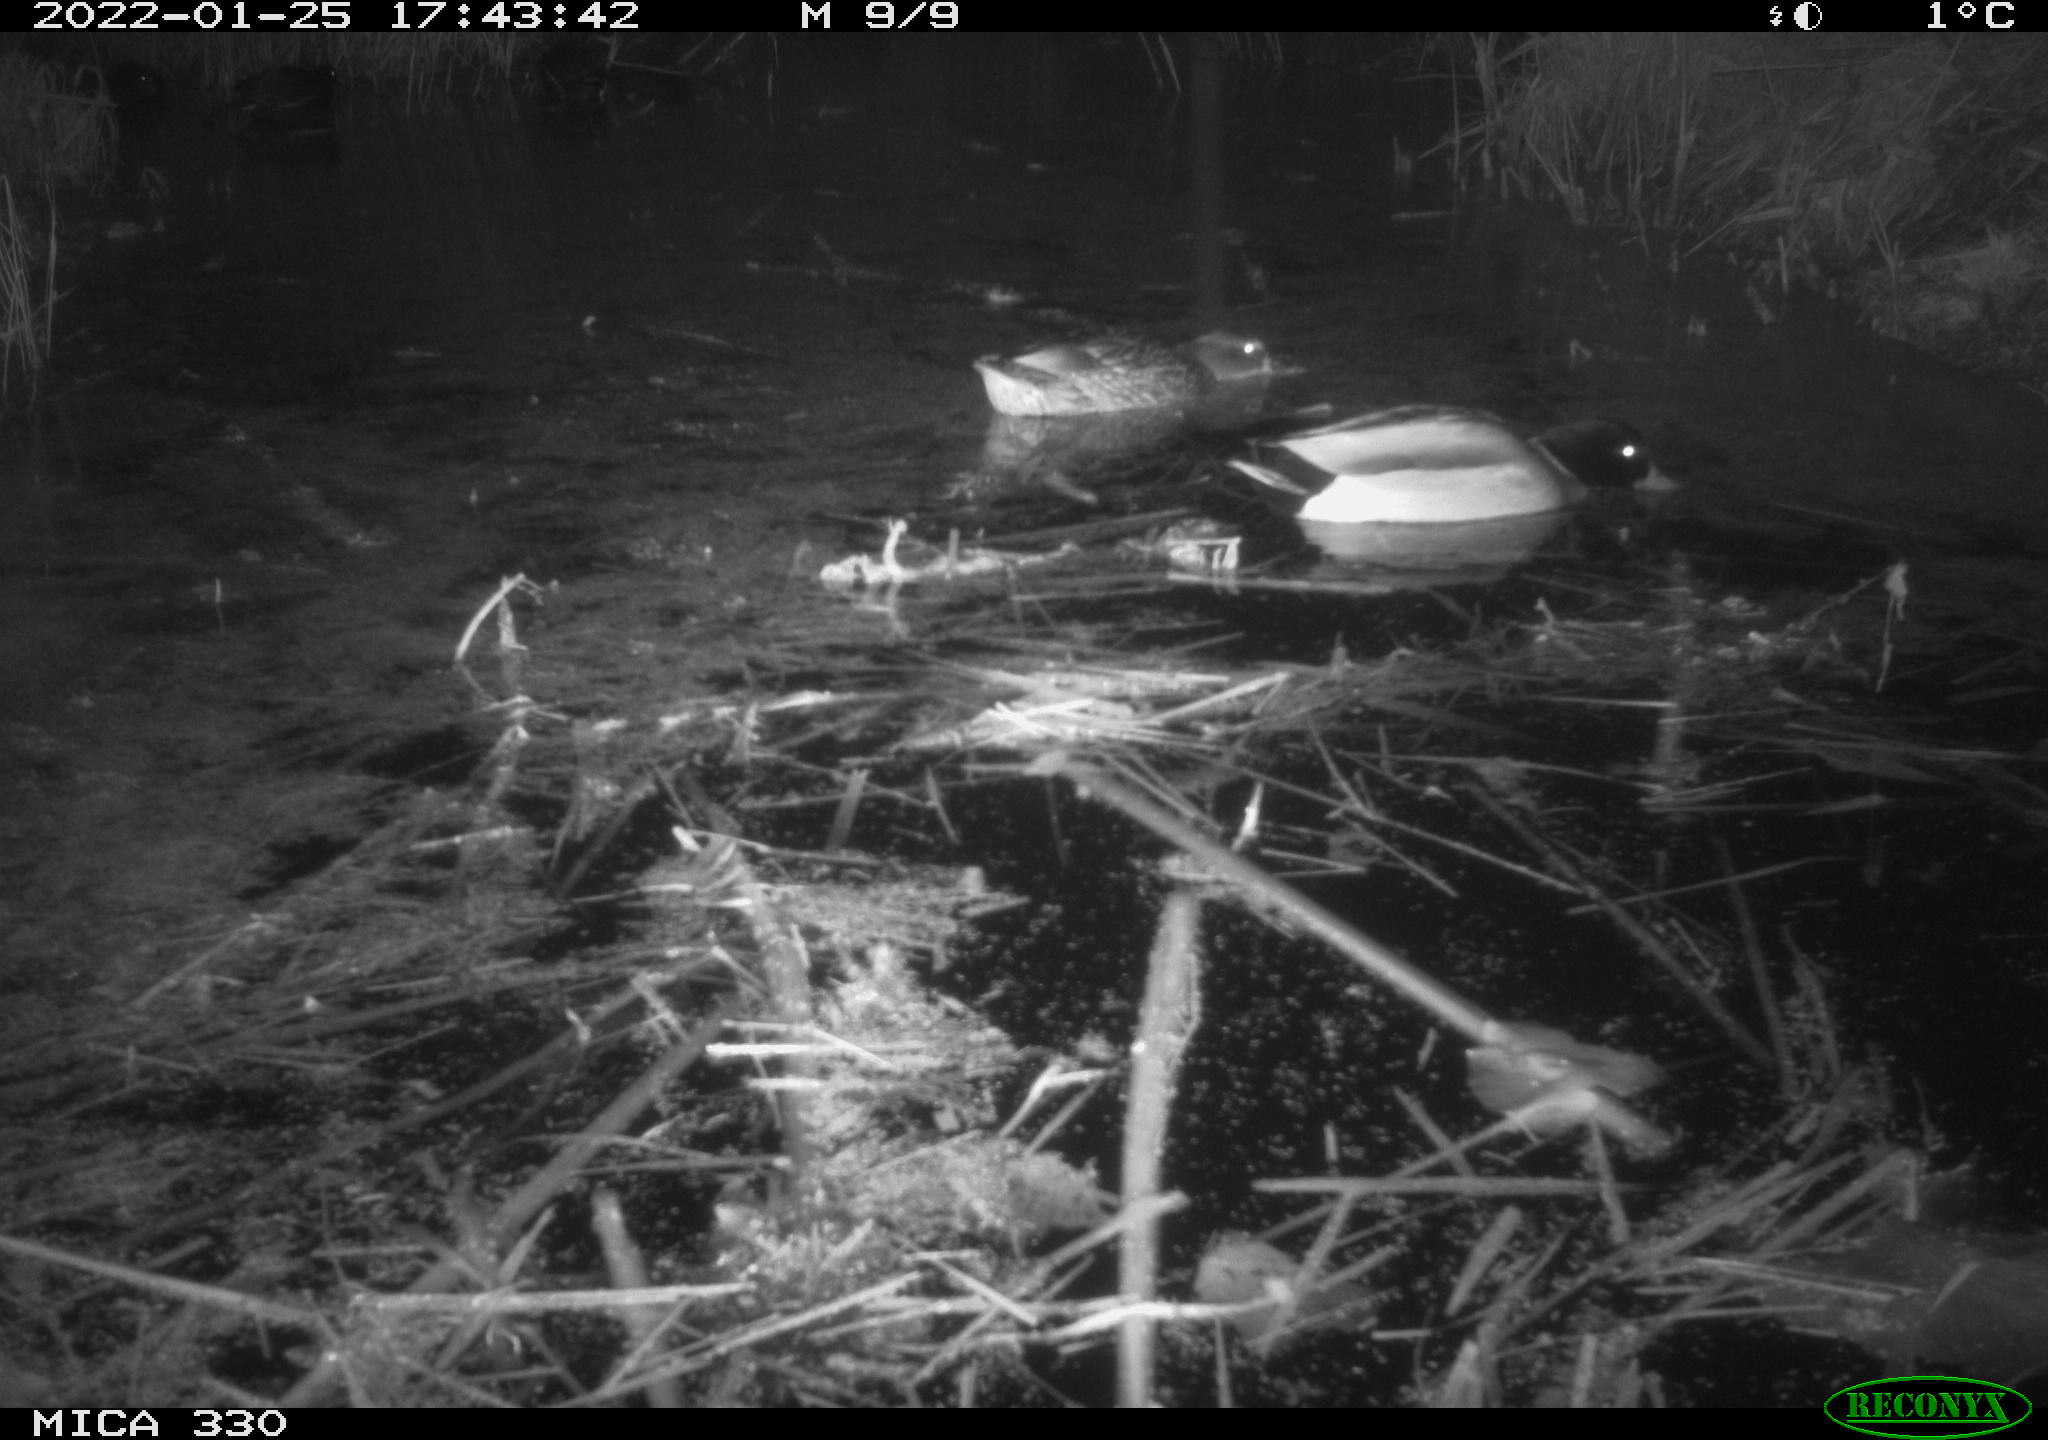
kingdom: Animalia
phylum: Chordata
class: Aves
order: Anseriformes
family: Anatidae
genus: Anas
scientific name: Anas platyrhynchos
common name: Mallard
